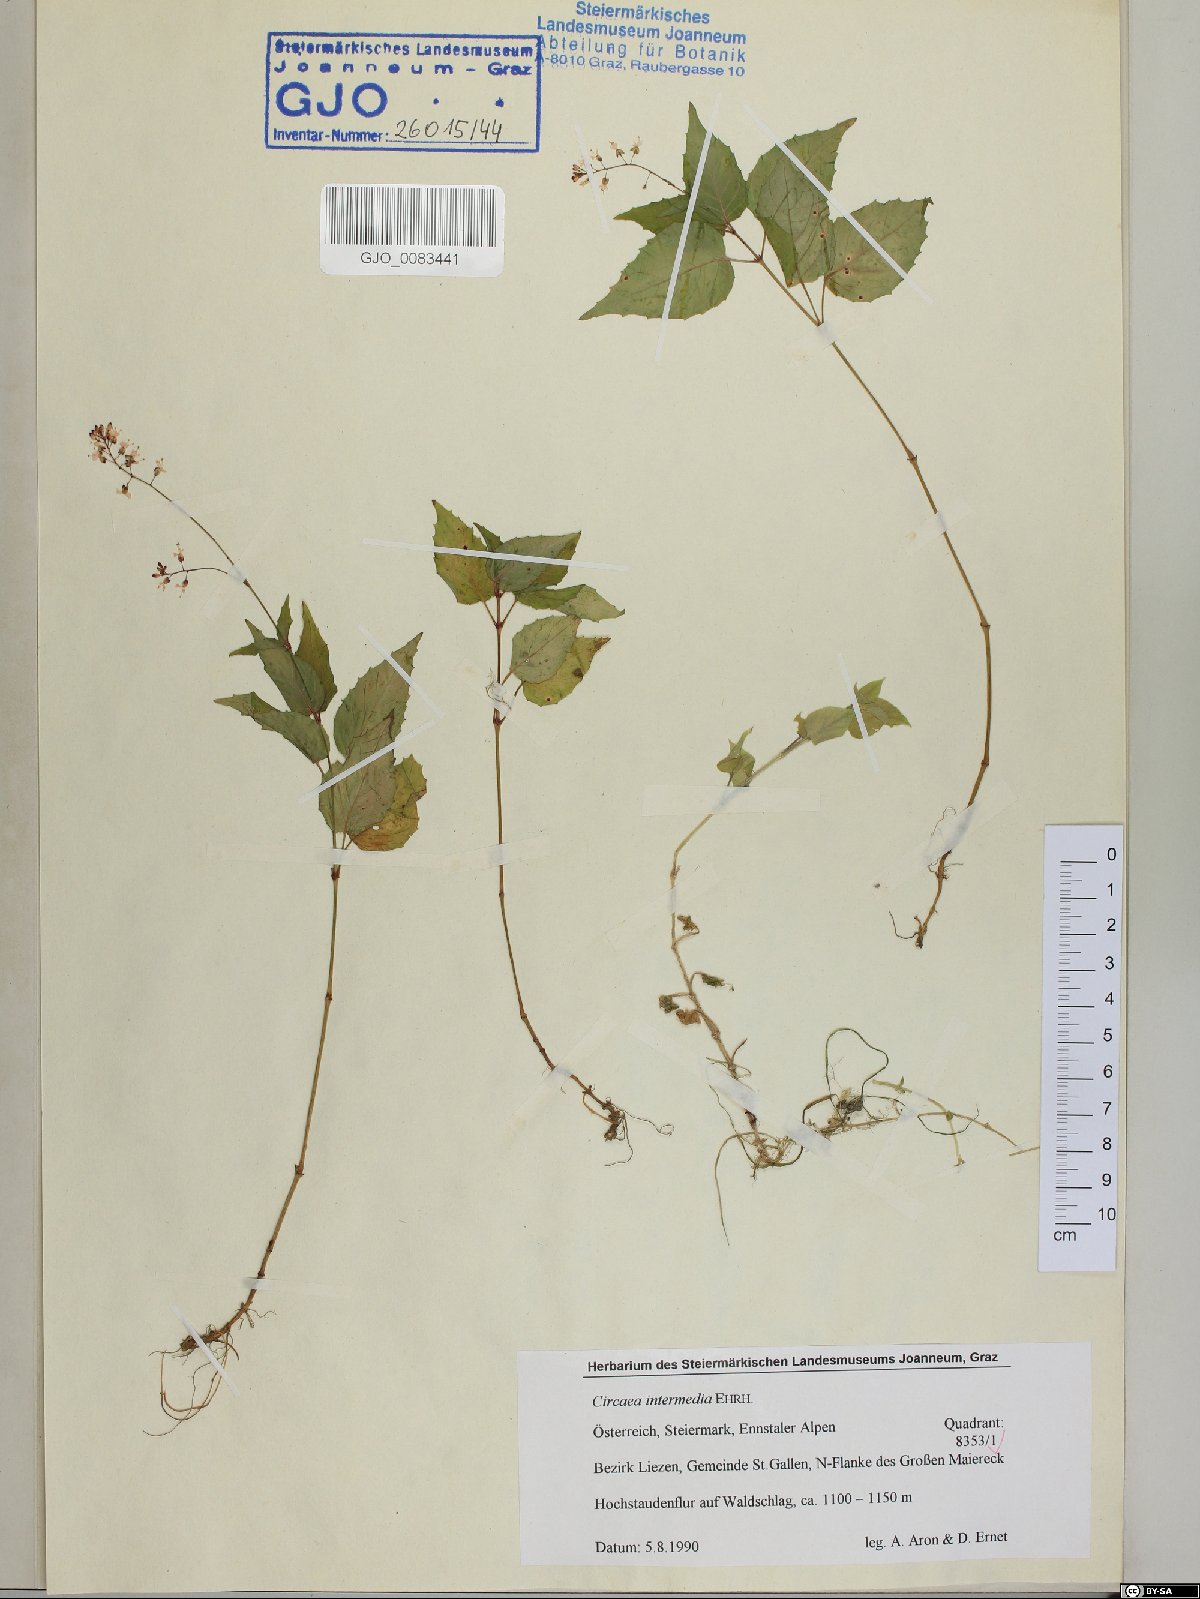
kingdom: Plantae
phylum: Tracheophyta
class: Magnoliopsida
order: Myrtales
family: Onagraceae
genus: Circaea
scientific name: Circaea intermedia
